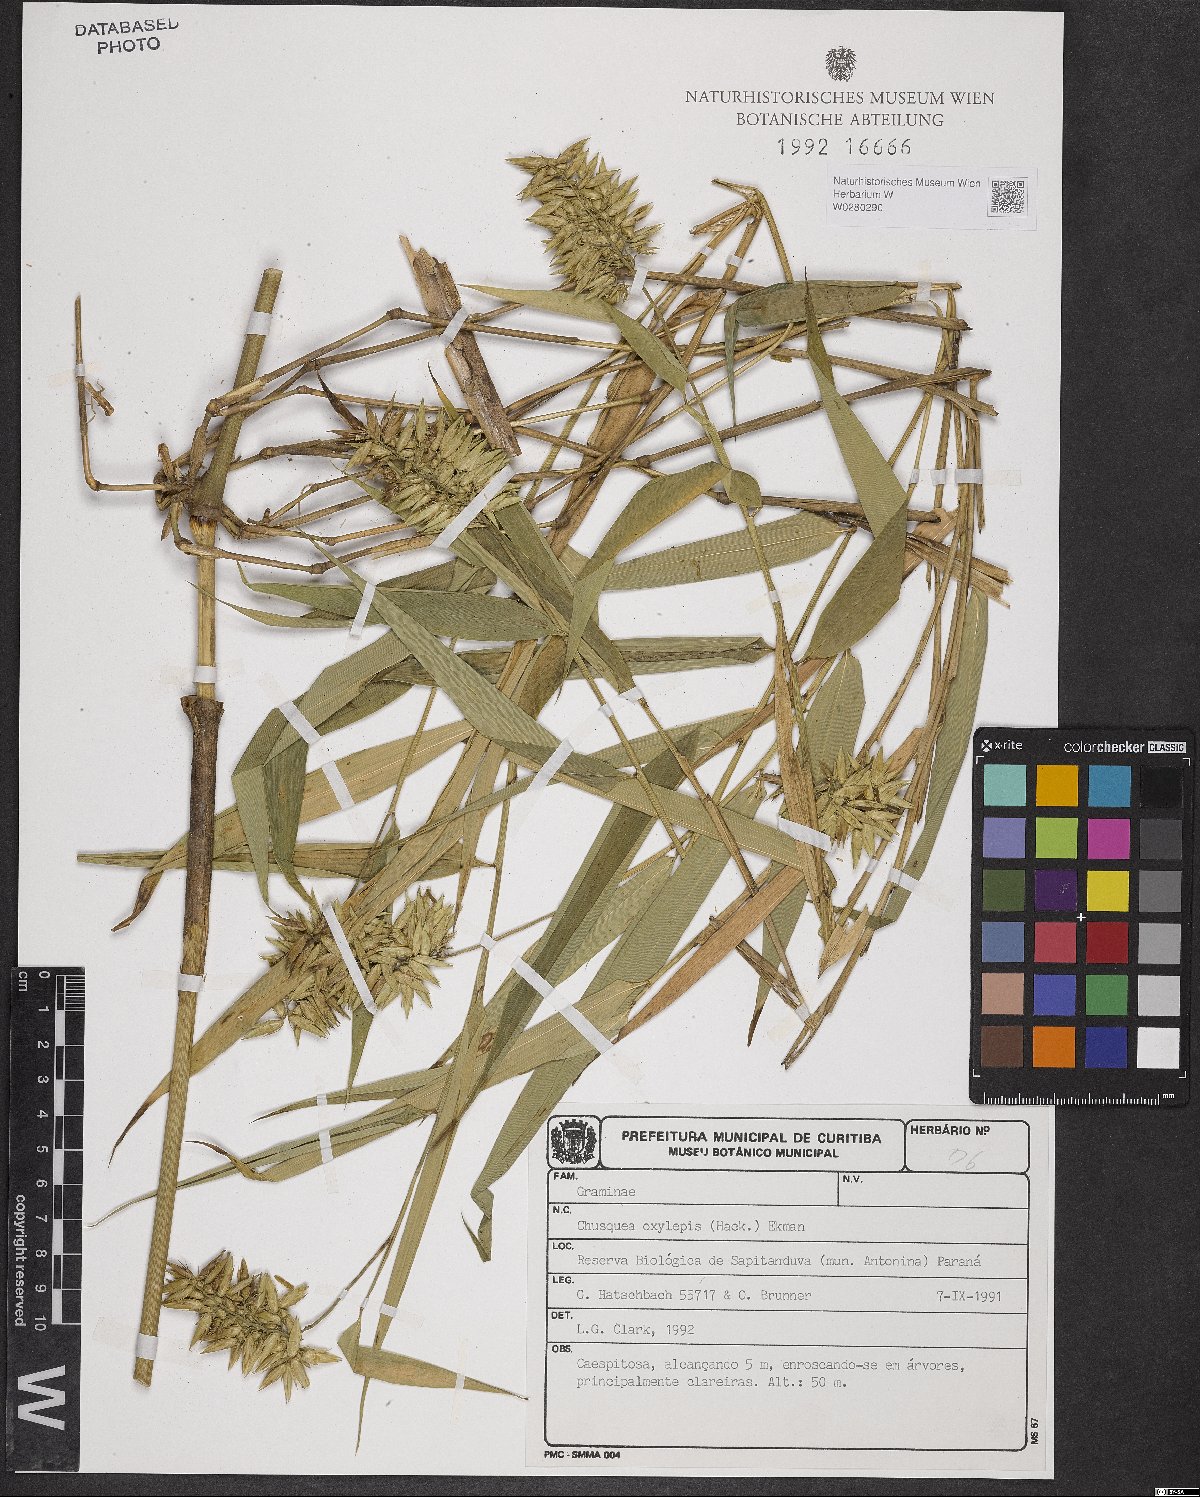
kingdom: Plantae
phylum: Tracheophyta
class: Liliopsida
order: Poales
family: Poaceae
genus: Chusquea
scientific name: Chusquea oxylepis
